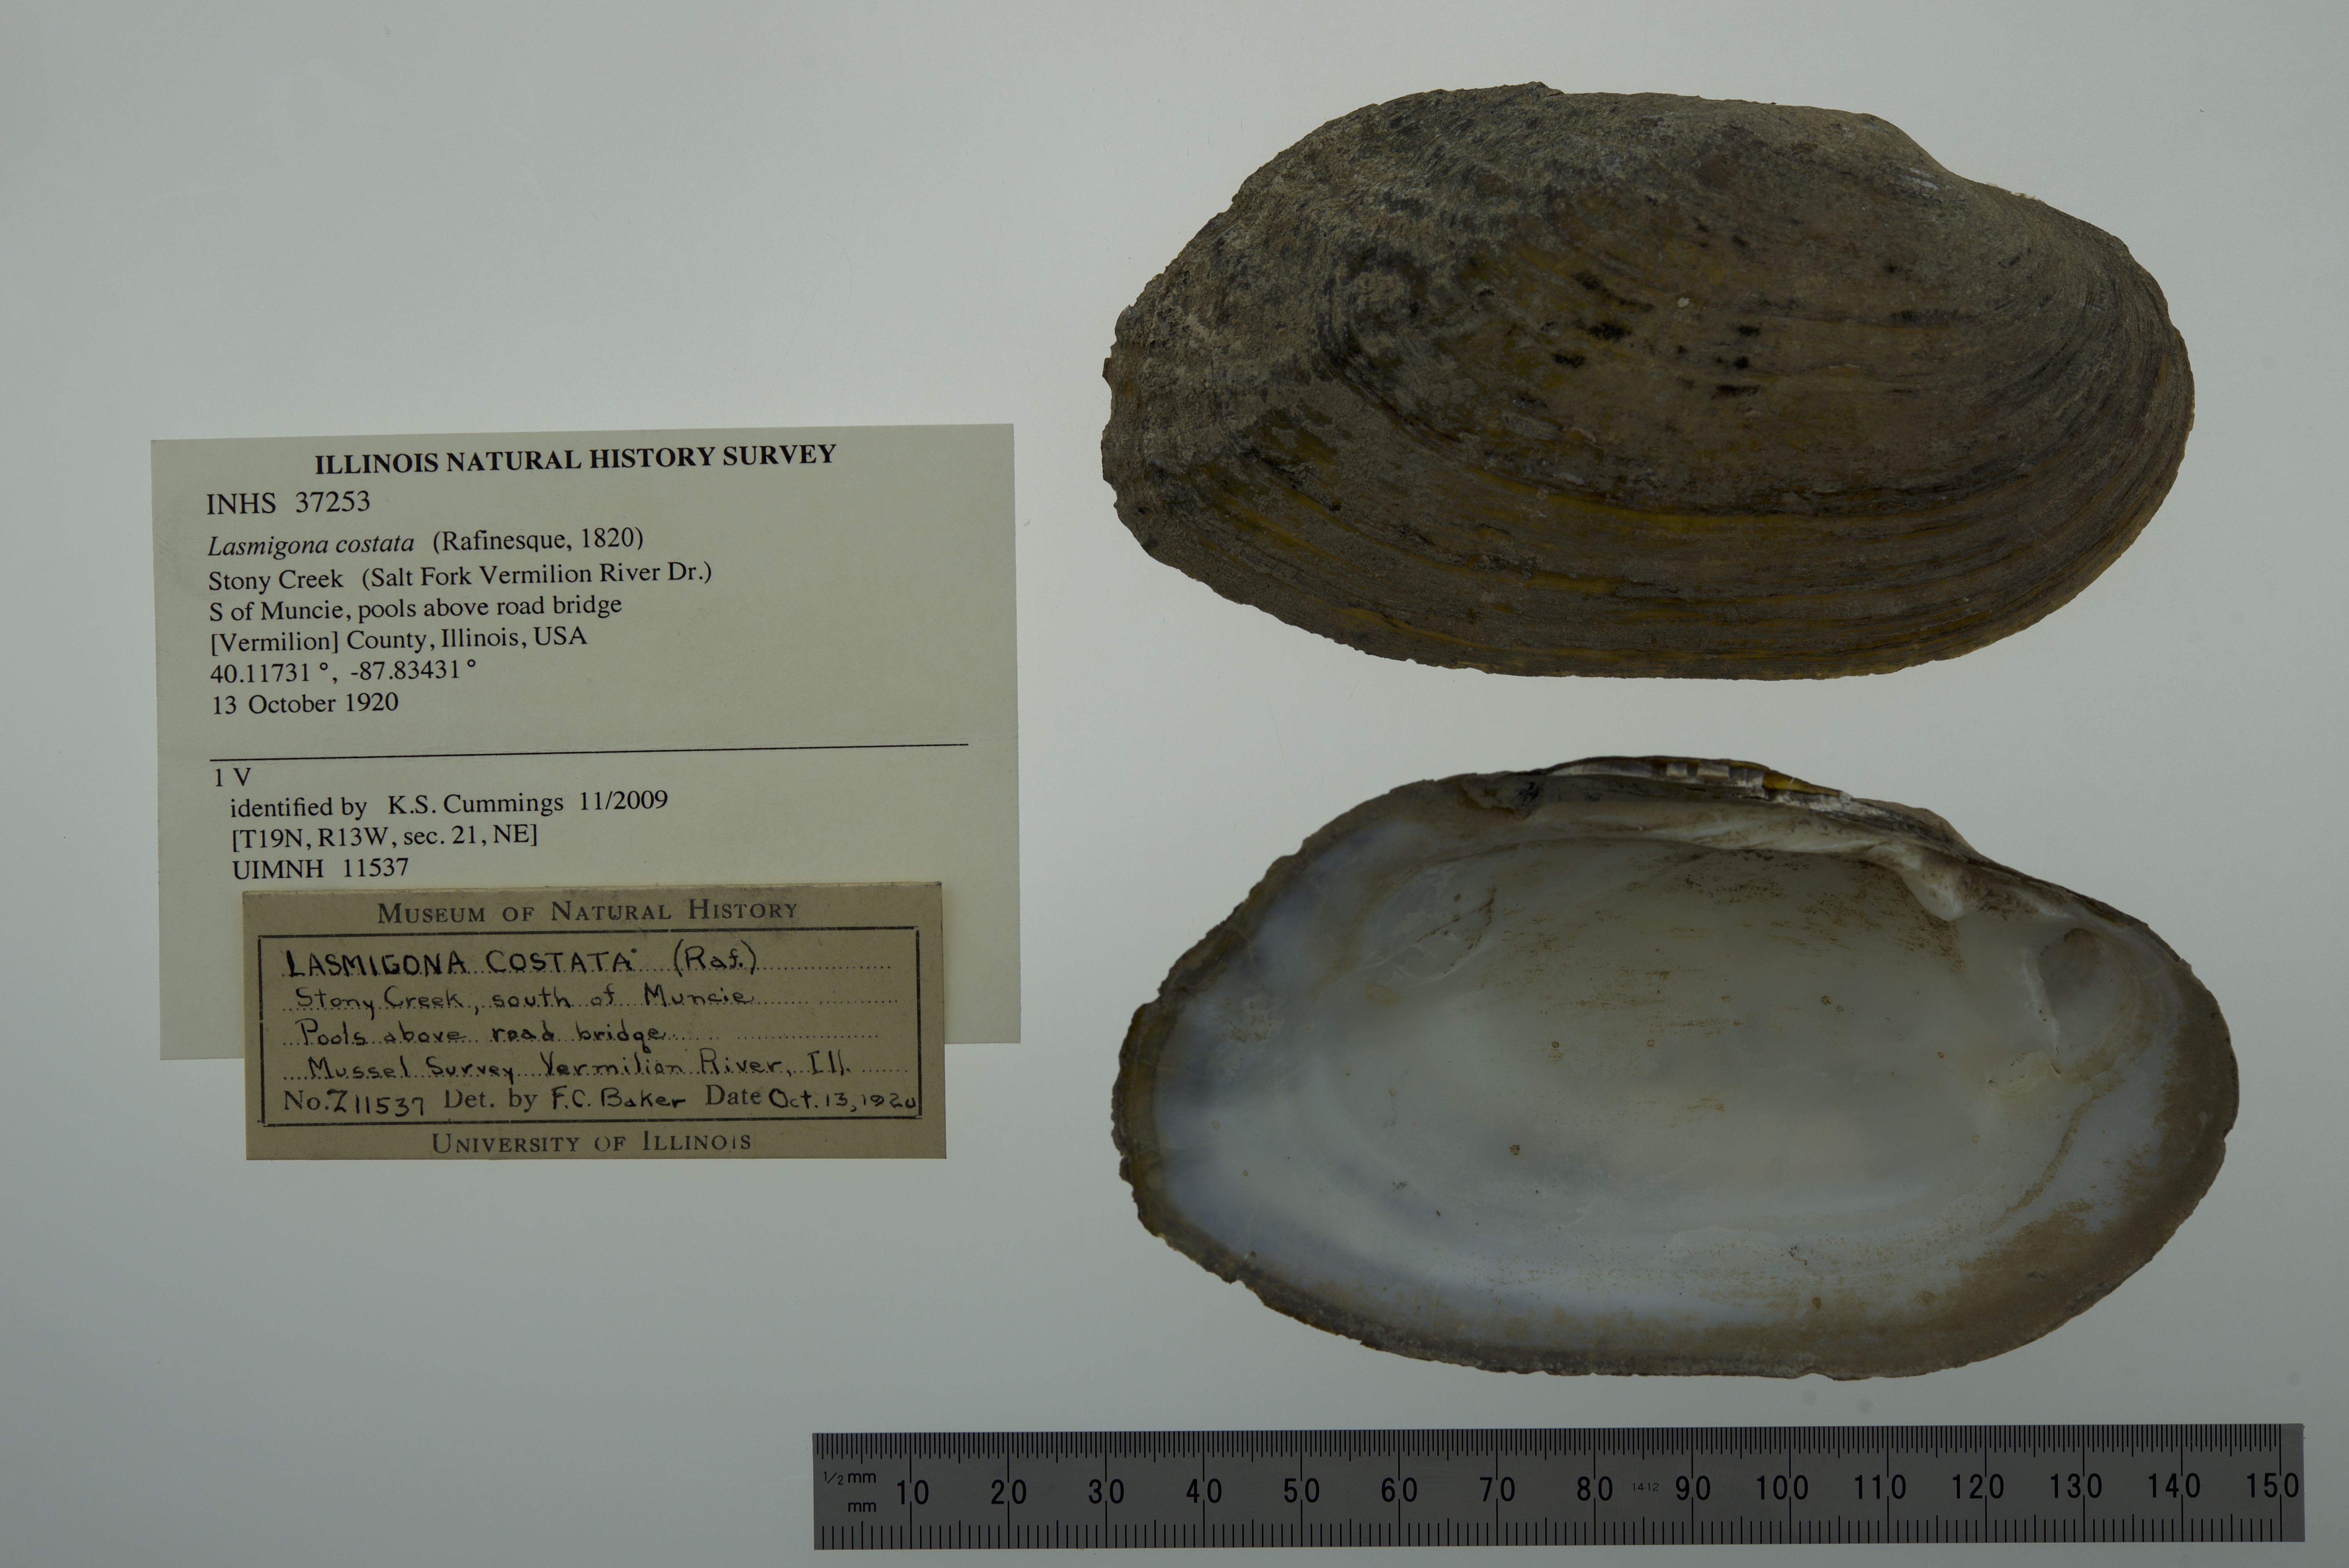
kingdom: Animalia
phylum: Mollusca
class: Bivalvia
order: Unionida
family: Unionidae
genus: Lasmigona
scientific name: Lasmigona costata
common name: Flutedshell
